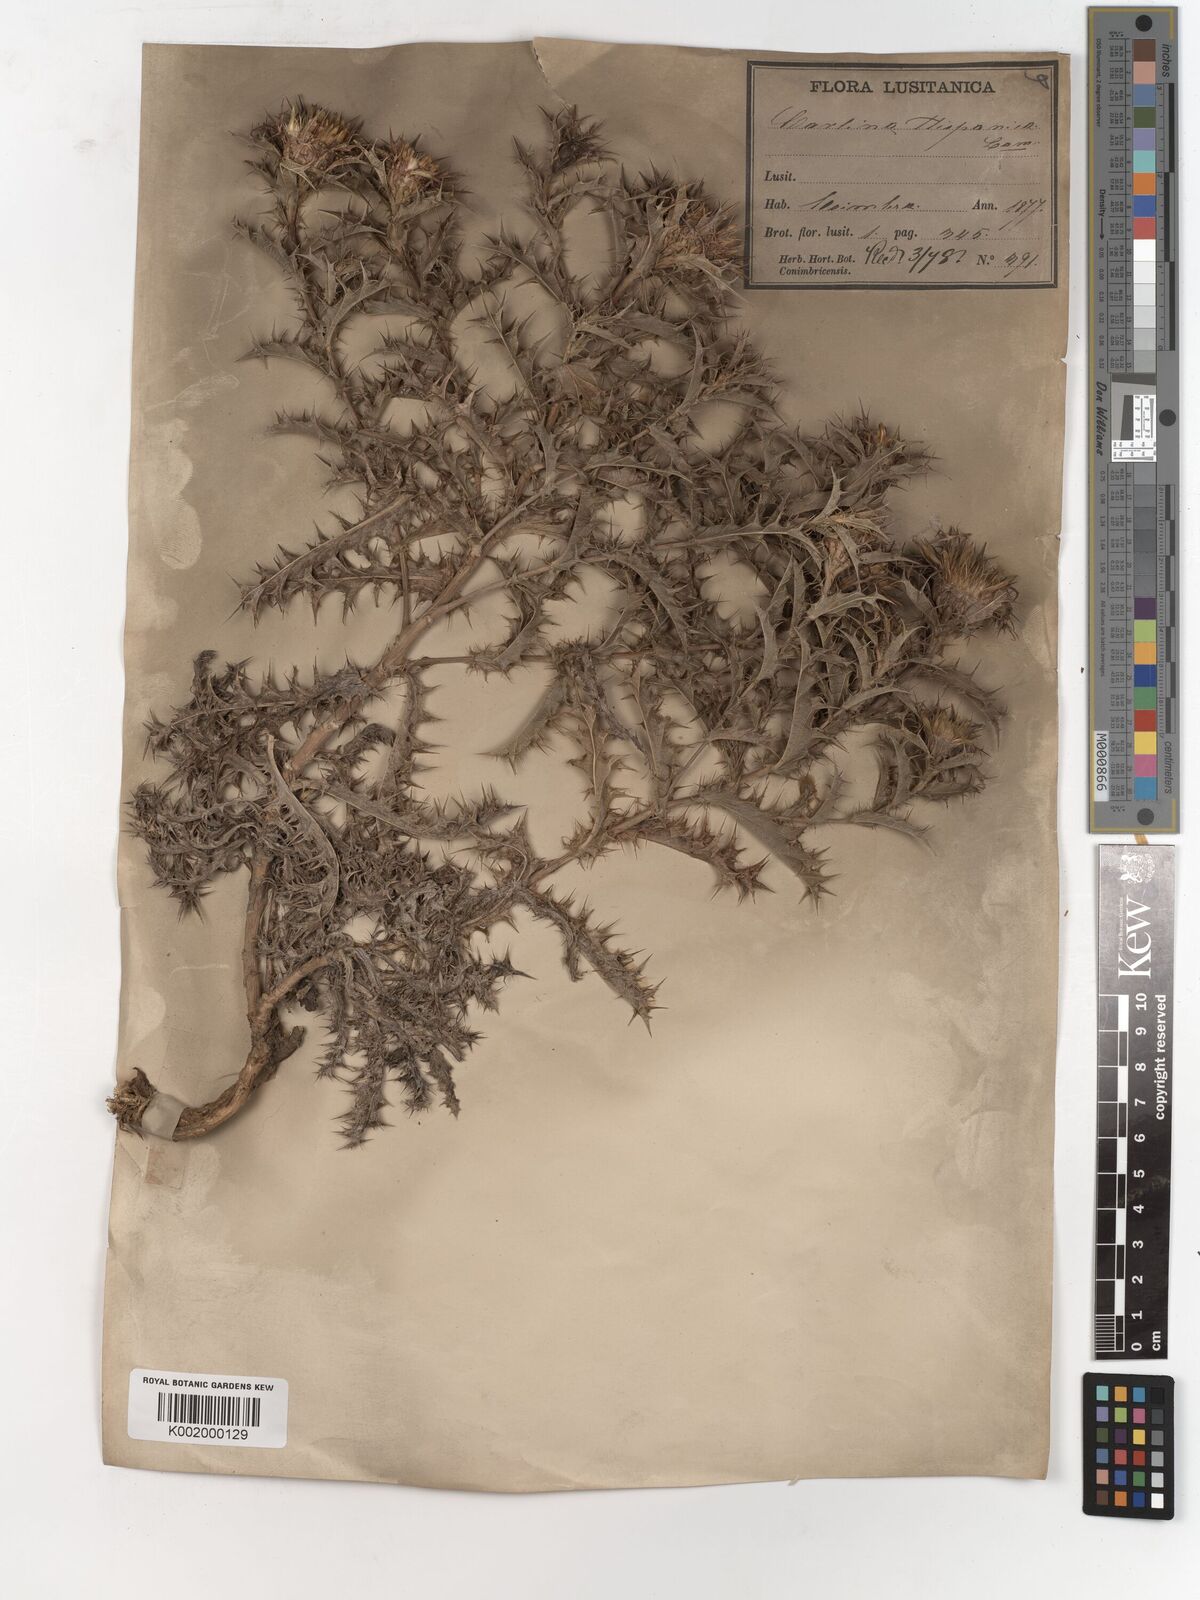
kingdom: Plantae
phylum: Tracheophyta
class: Magnoliopsida
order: Asterales
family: Asteraceae
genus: Carlina
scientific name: Carlina corymbosa
